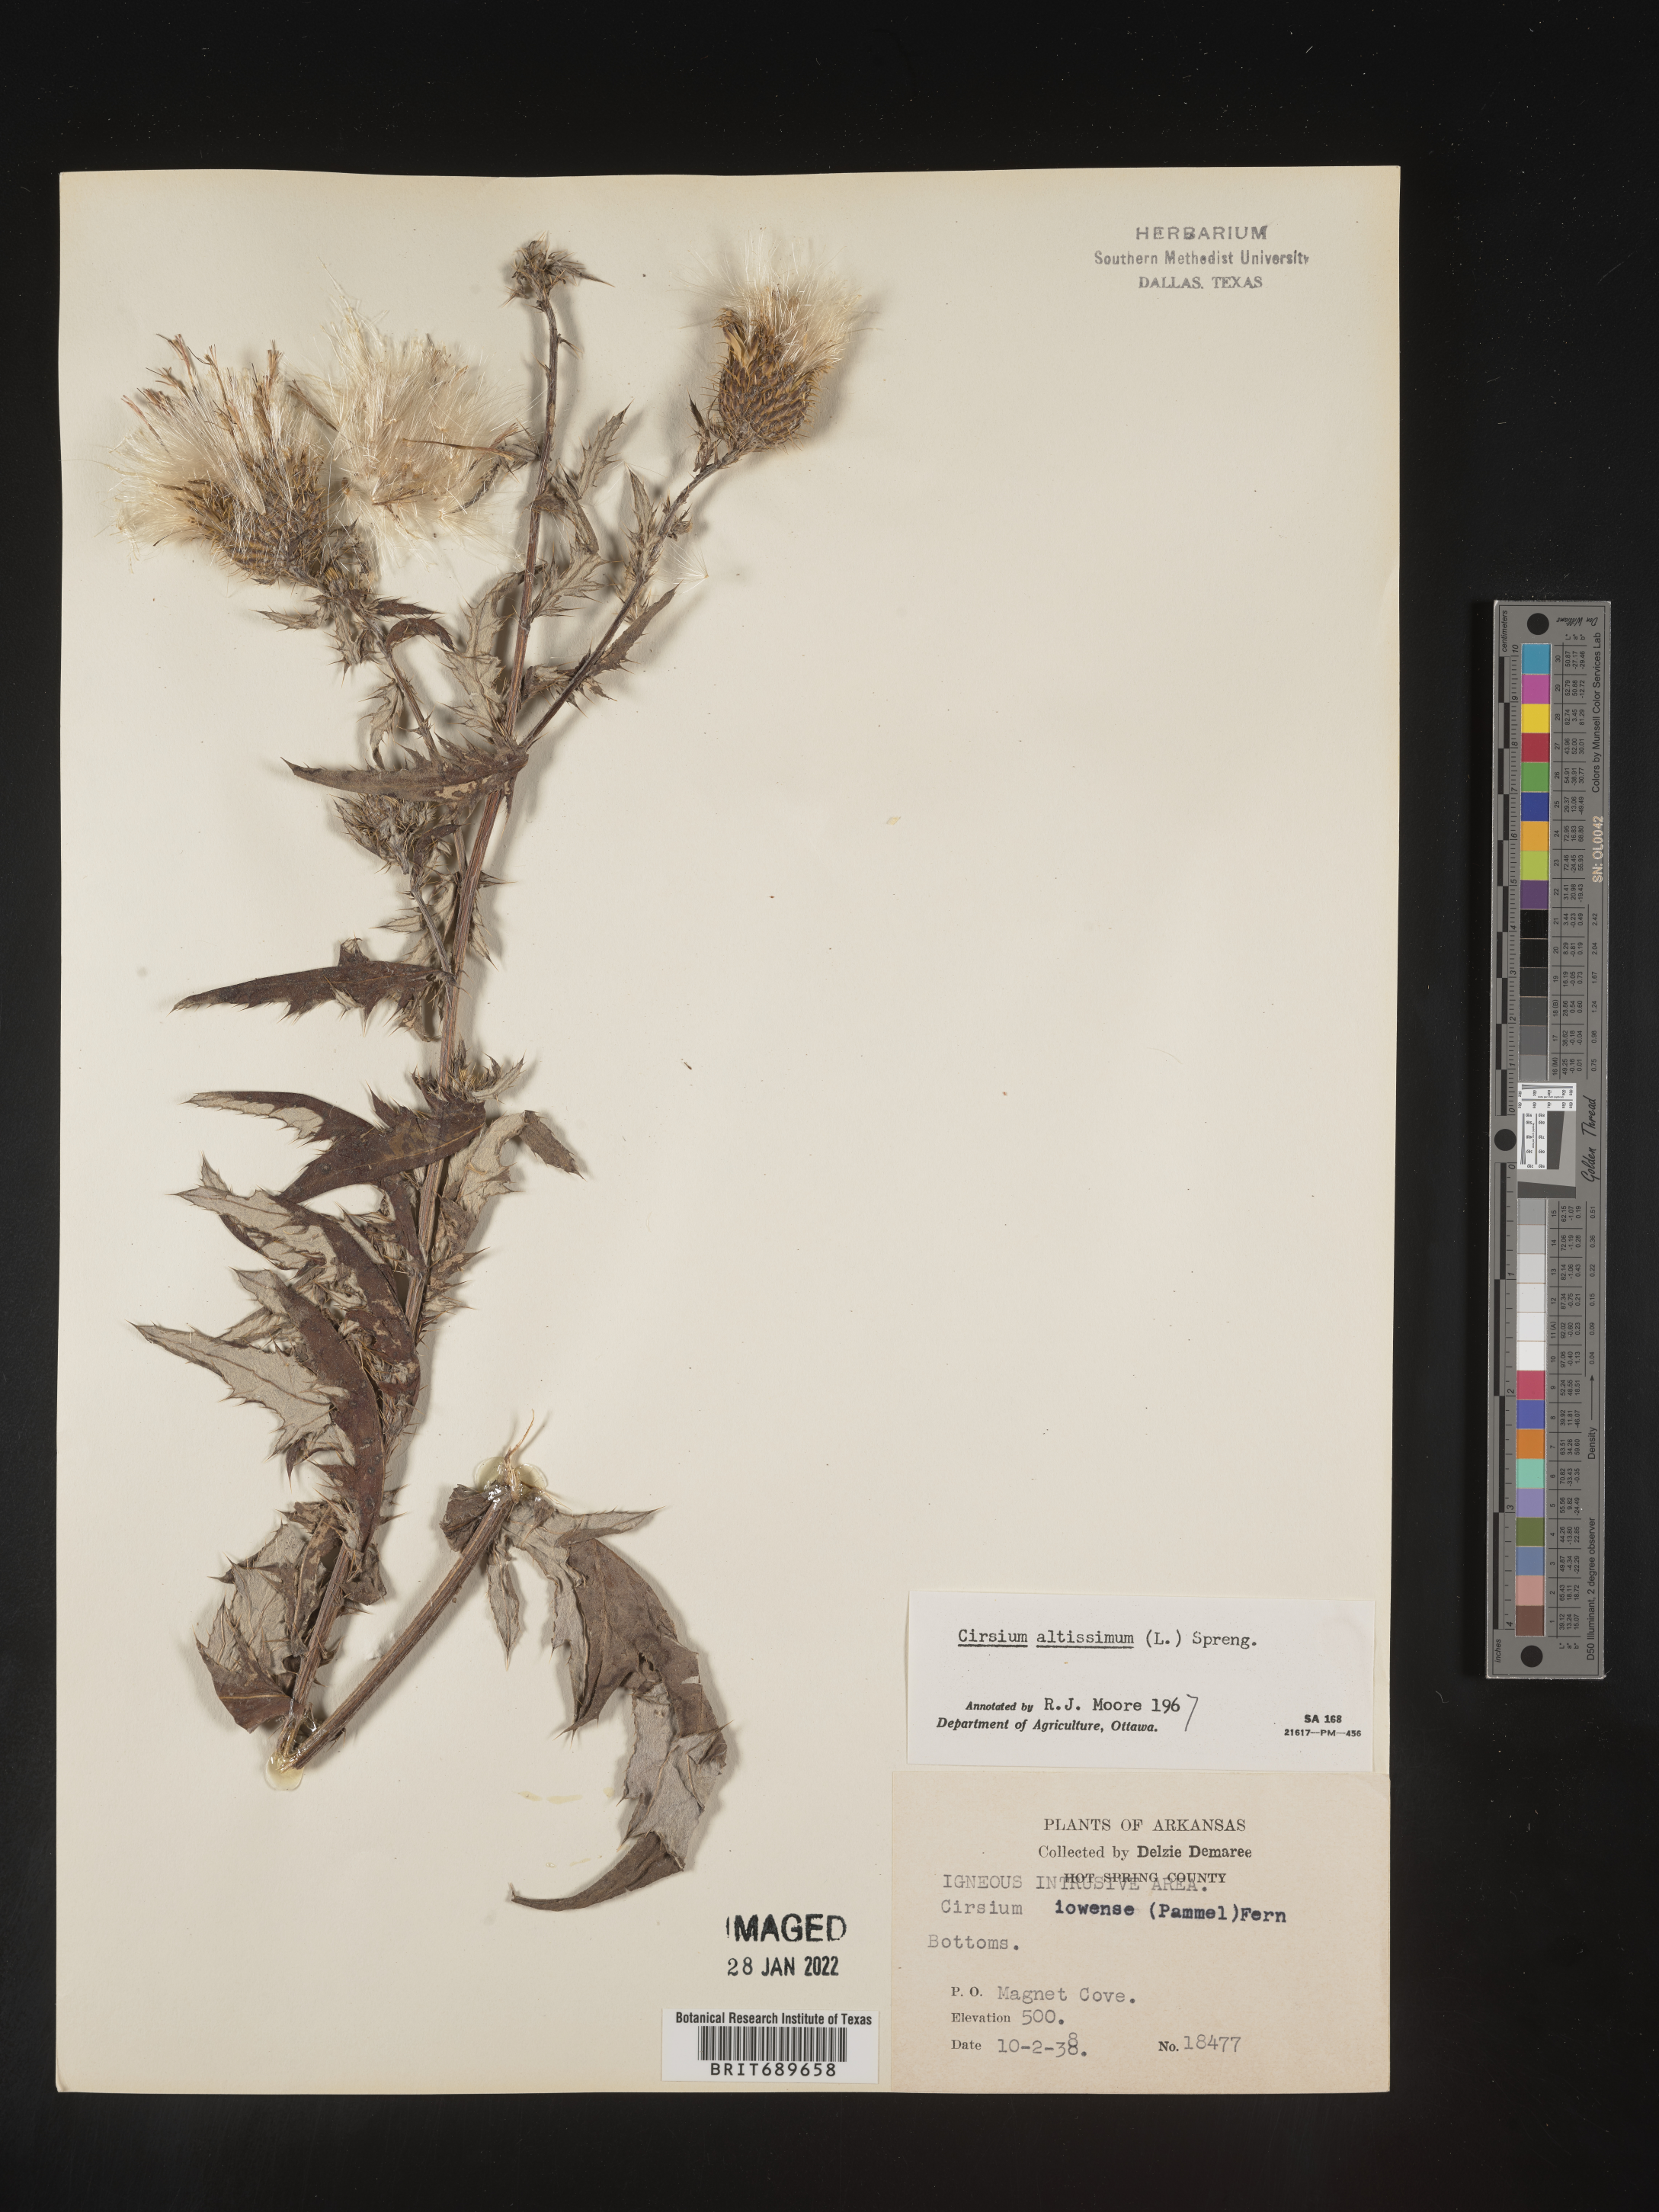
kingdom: Plantae
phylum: Tracheophyta
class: Magnoliopsida
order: Asterales
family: Asteraceae
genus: Cirsium
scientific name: Cirsium altissimum
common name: Roadside thistle
